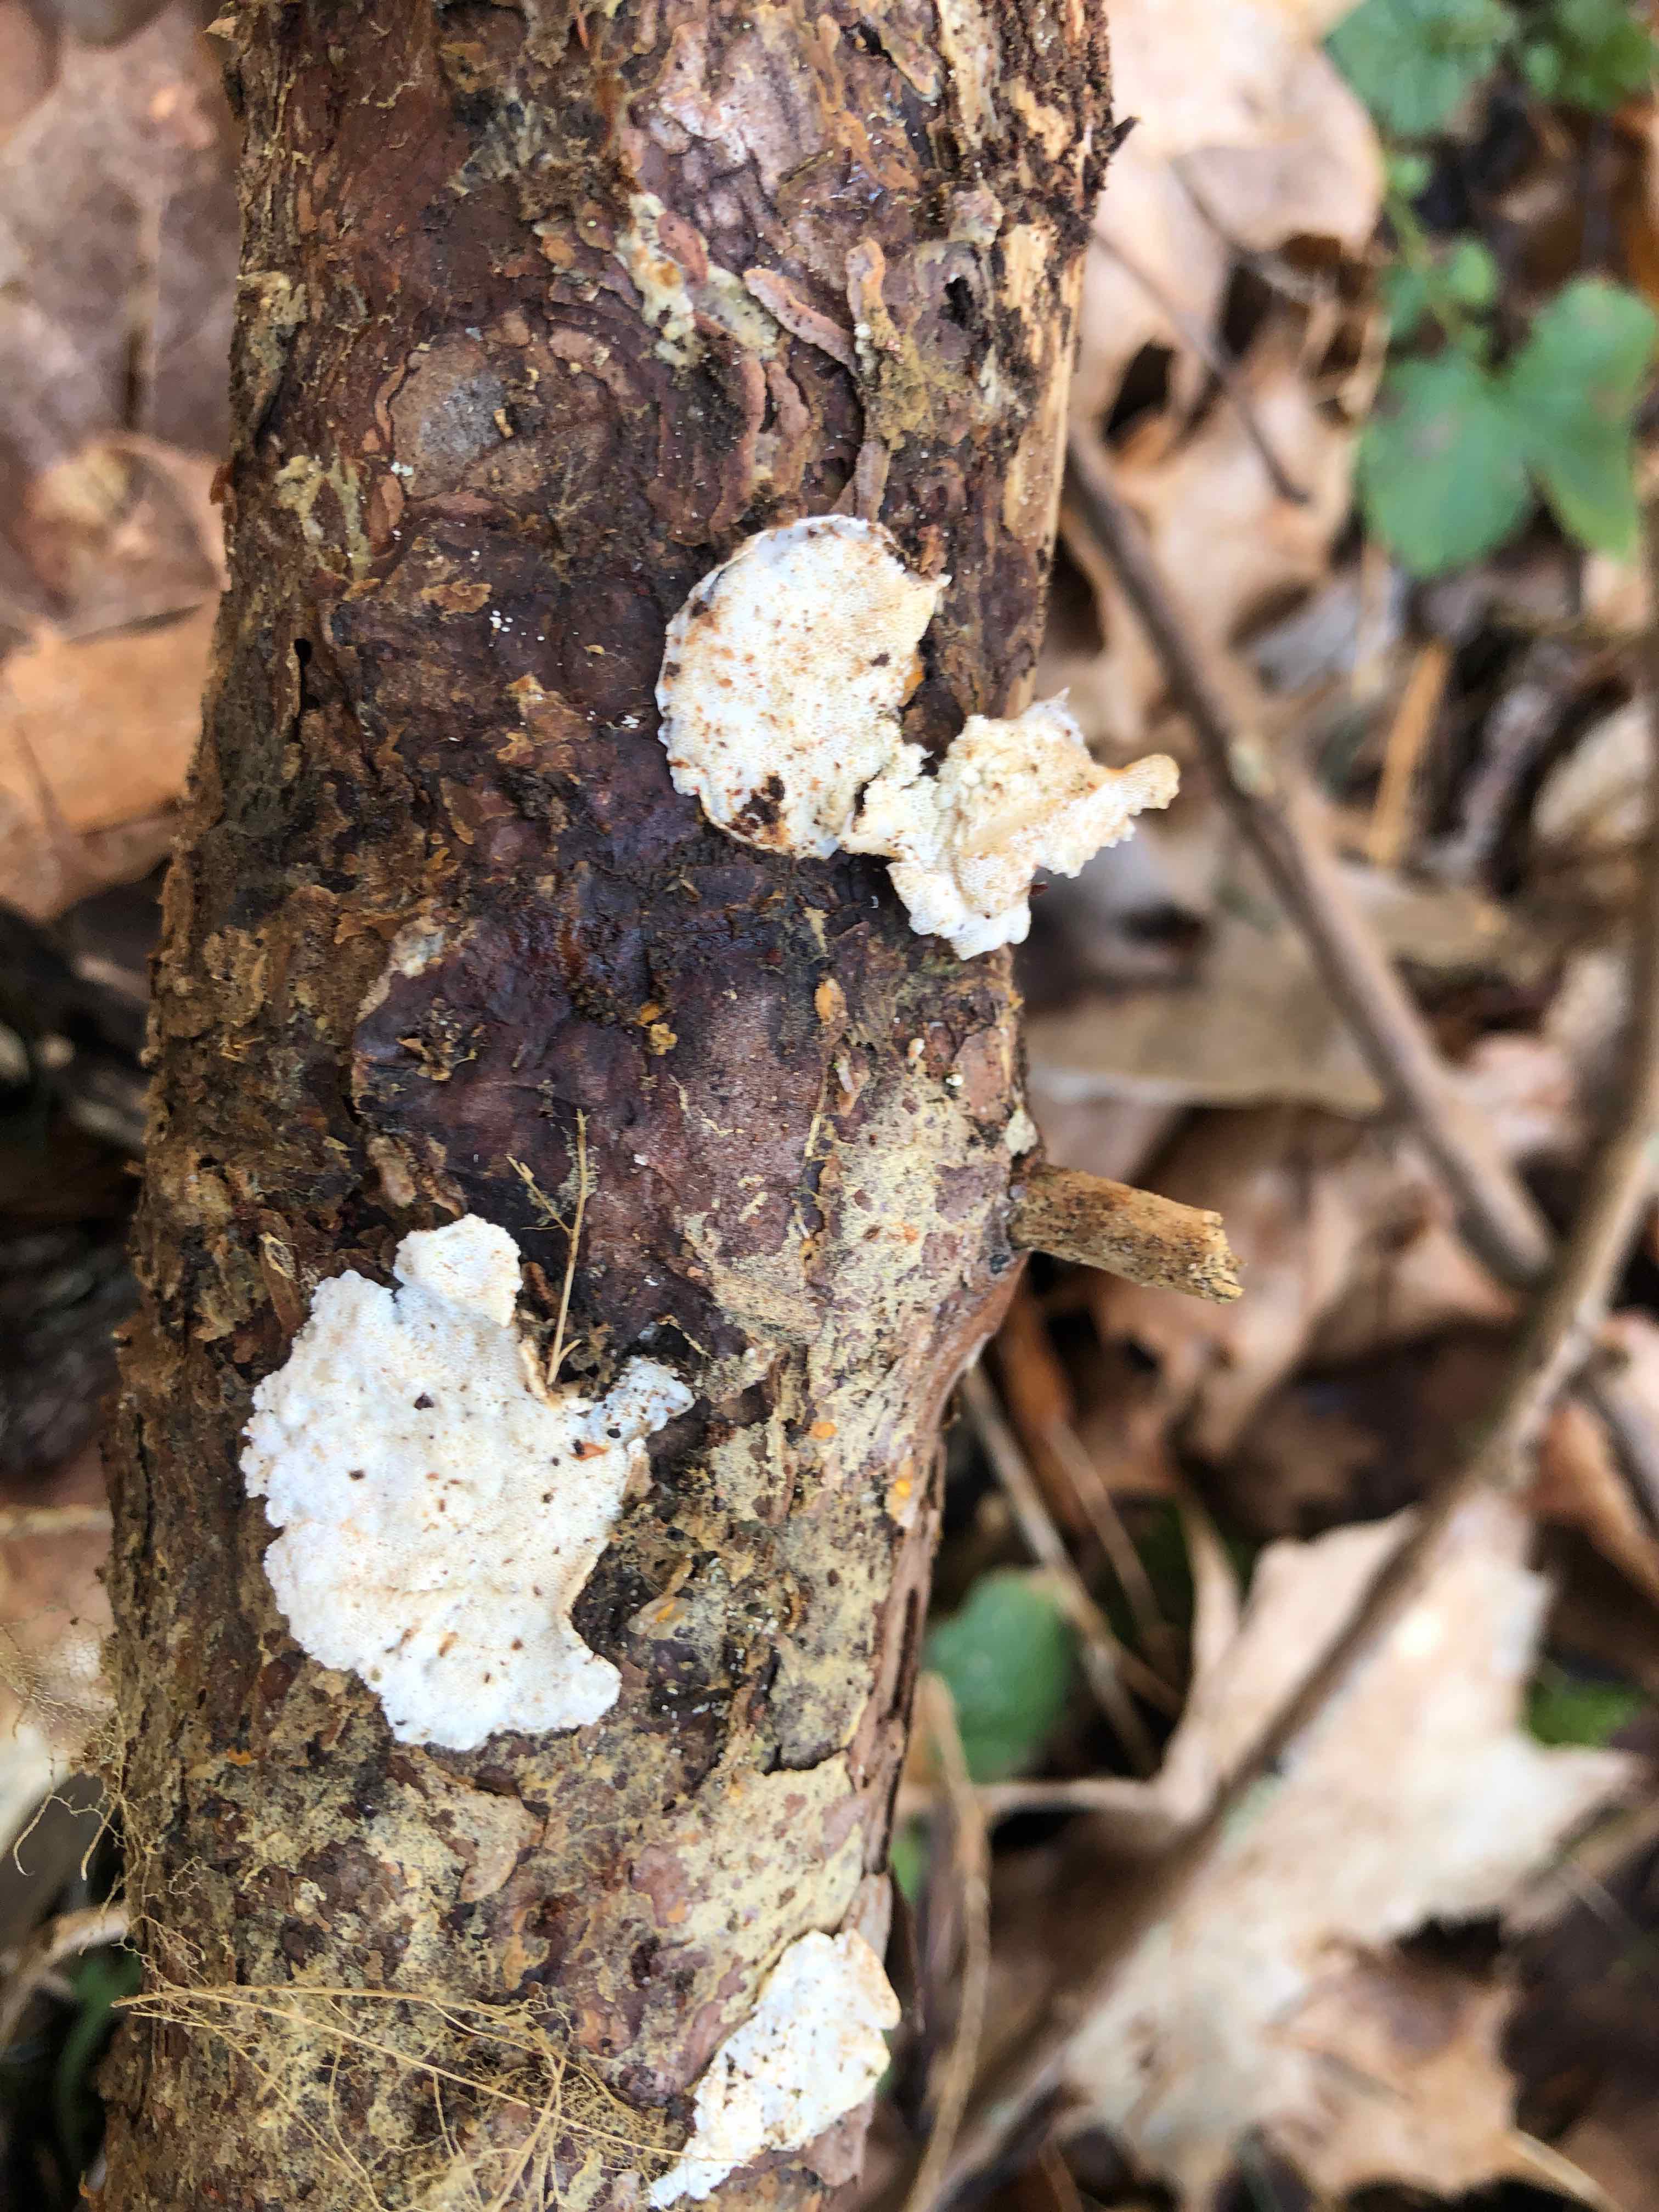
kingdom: Fungi
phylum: Basidiomycota
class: Agaricomycetes
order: Polyporales
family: Incrustoporiaceae
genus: Skeletocutis
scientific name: Skeletocutis amorpha
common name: orange krystalporesvamp
